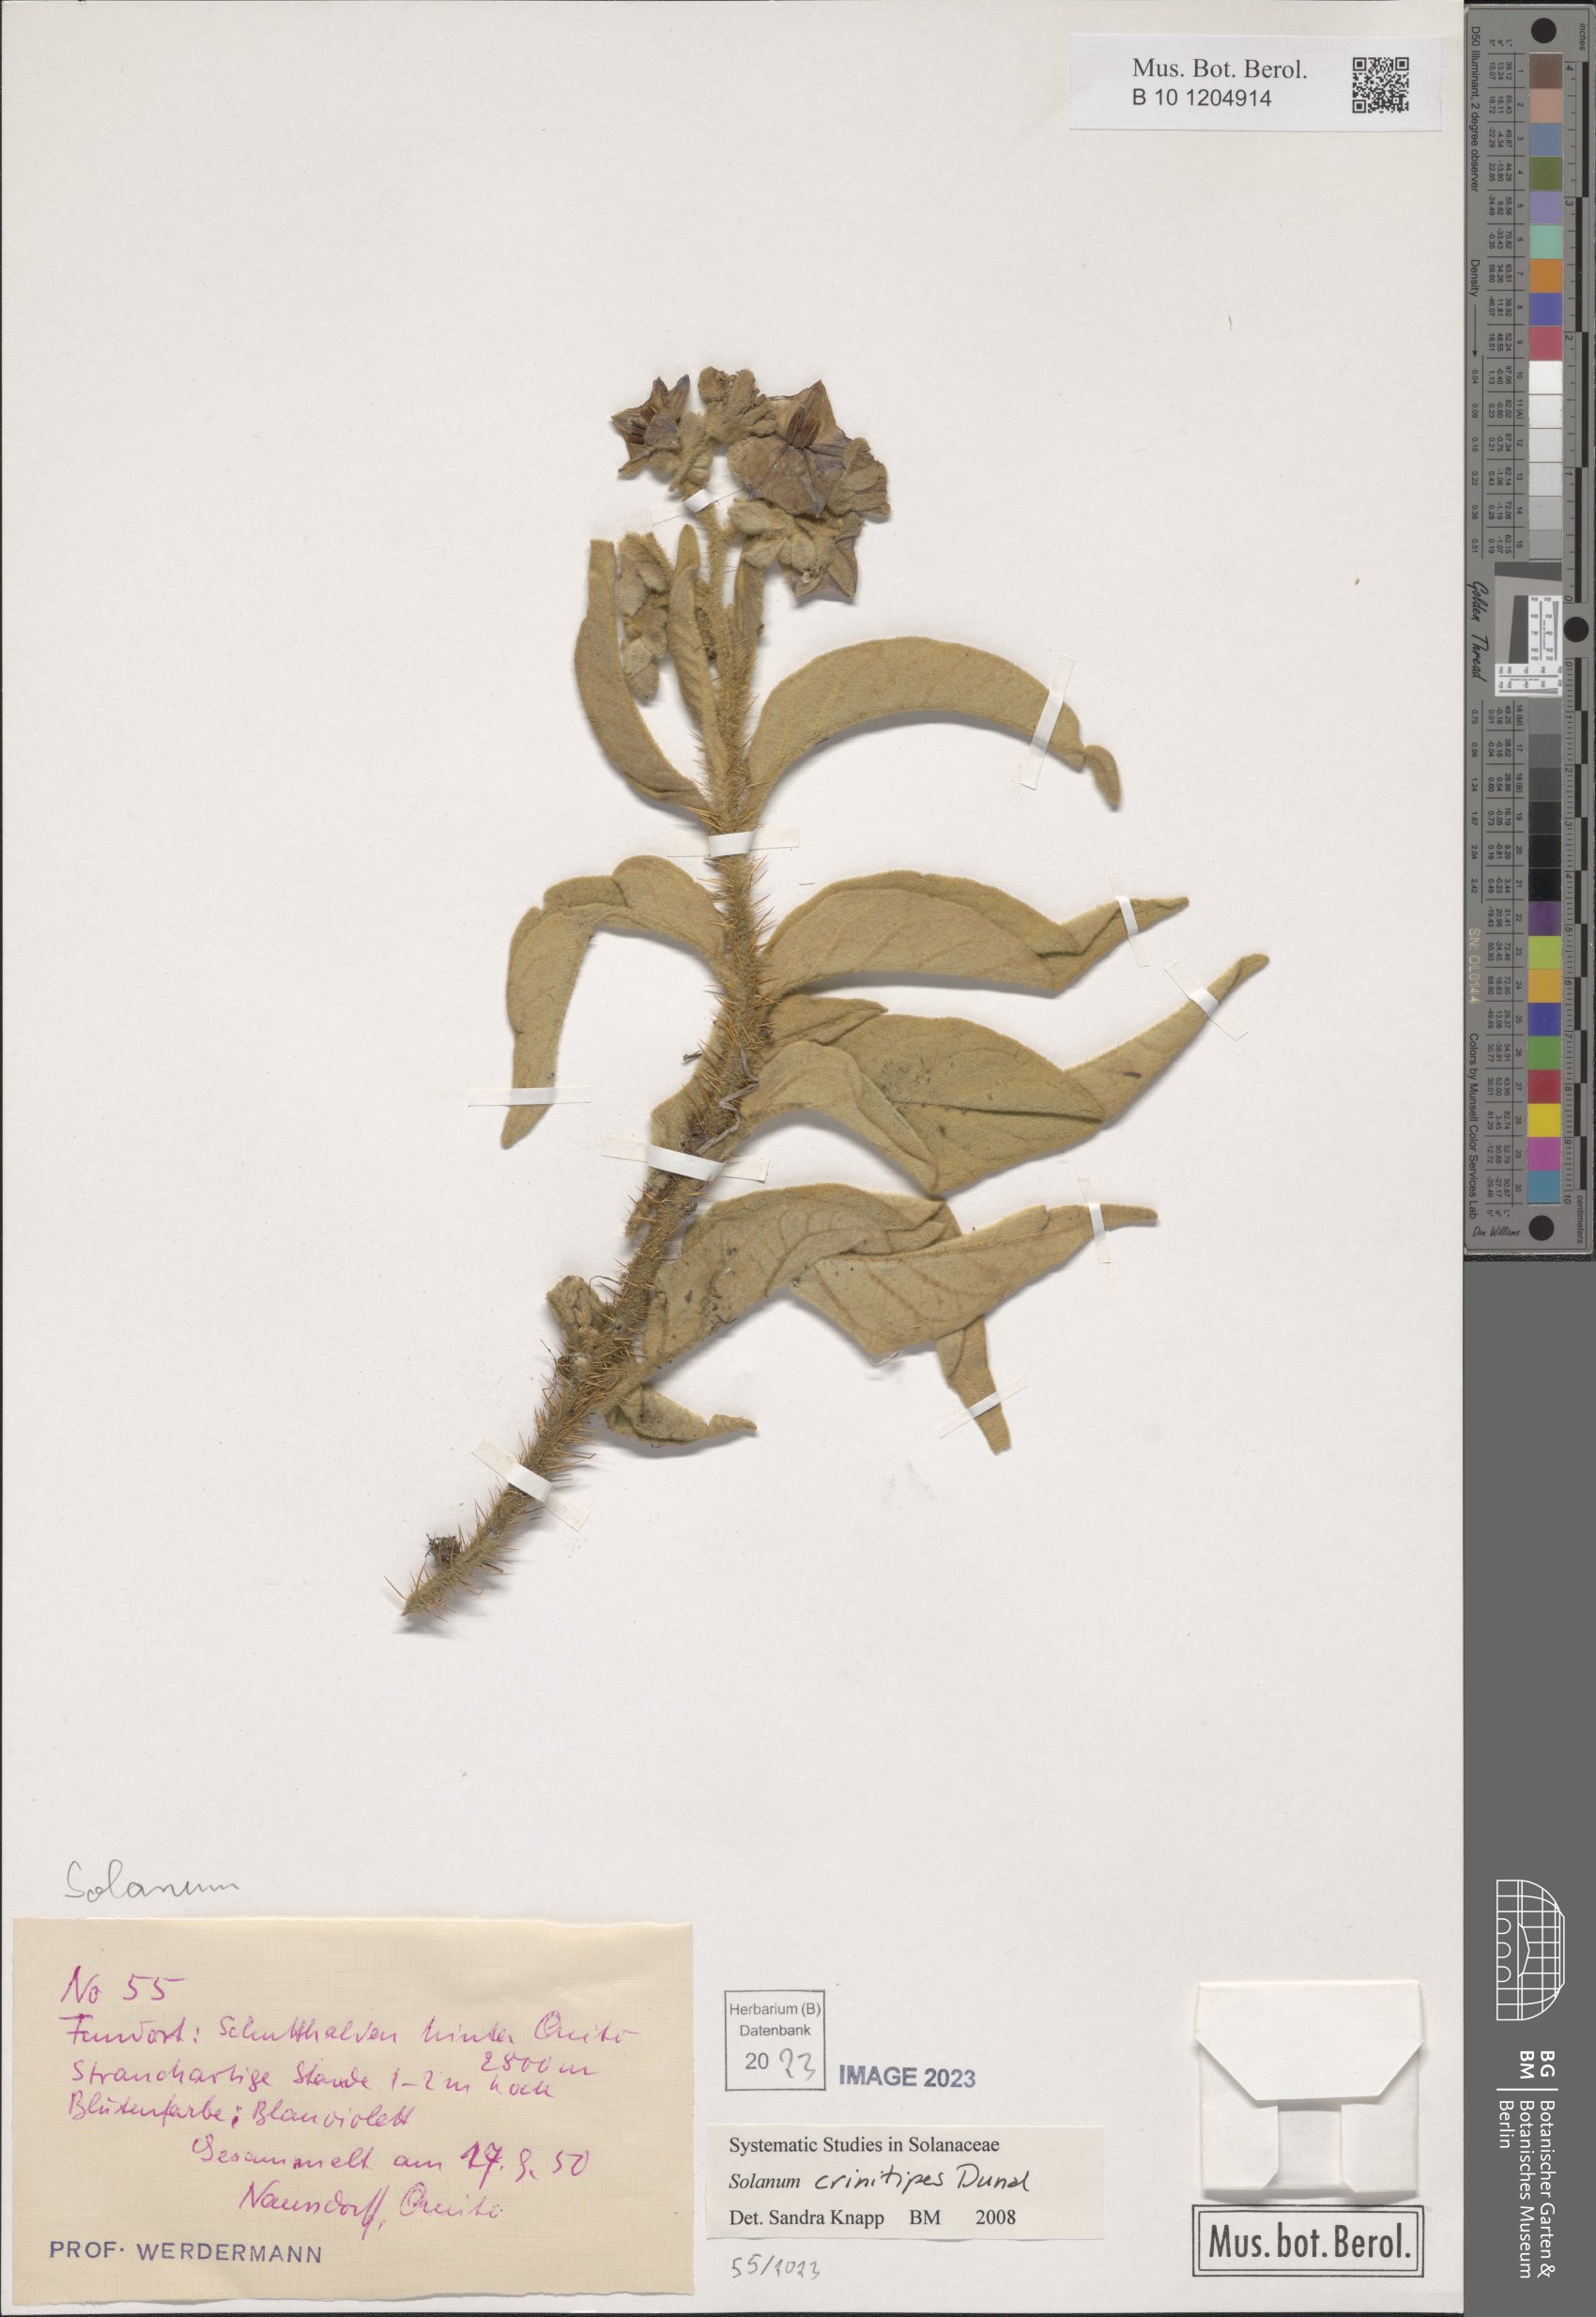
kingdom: Plantae
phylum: Tracheophyta
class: Magnoliopsida
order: Solanales
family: Solanaceae
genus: Solanum
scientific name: Solanum crinitipes
